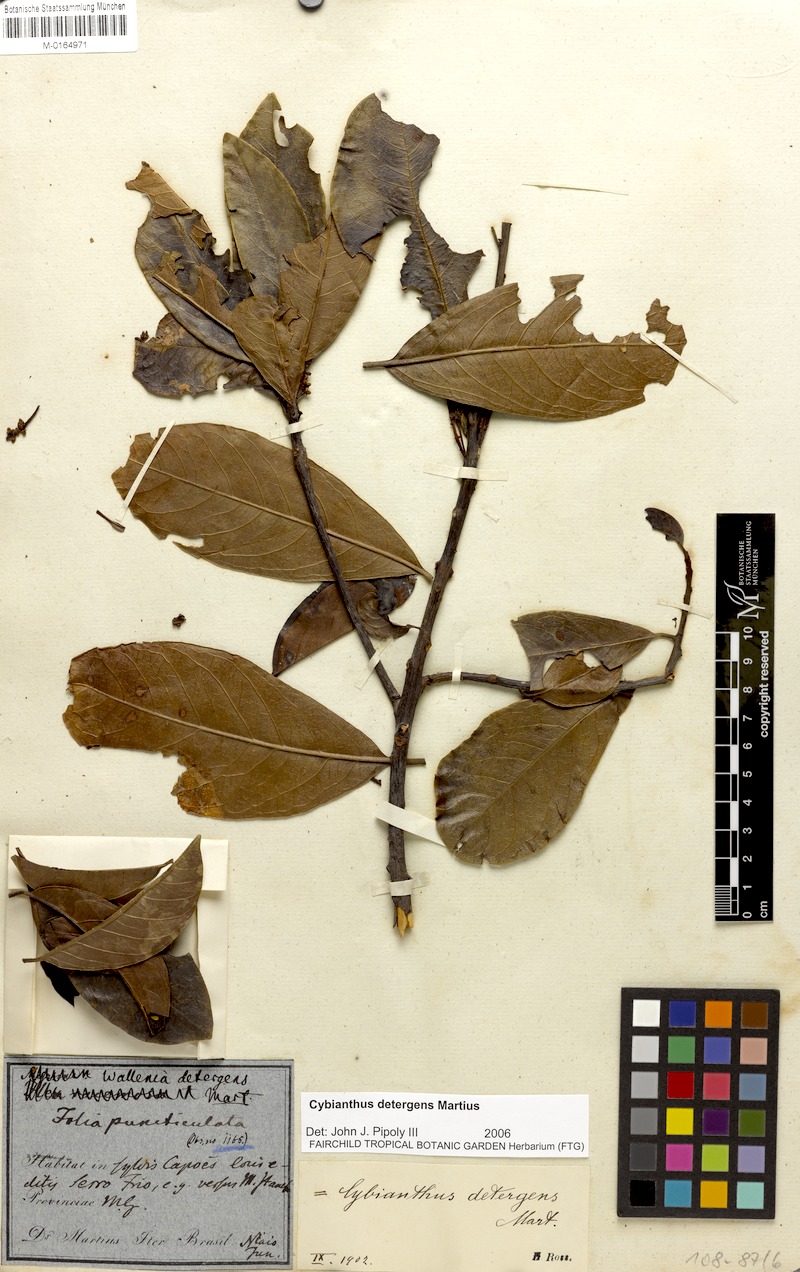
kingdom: Plantae
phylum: Tracheophyta
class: Magnoliopsida
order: Ericales
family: Primulaceae
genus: Cybianthus
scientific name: Cybianthus detergens
